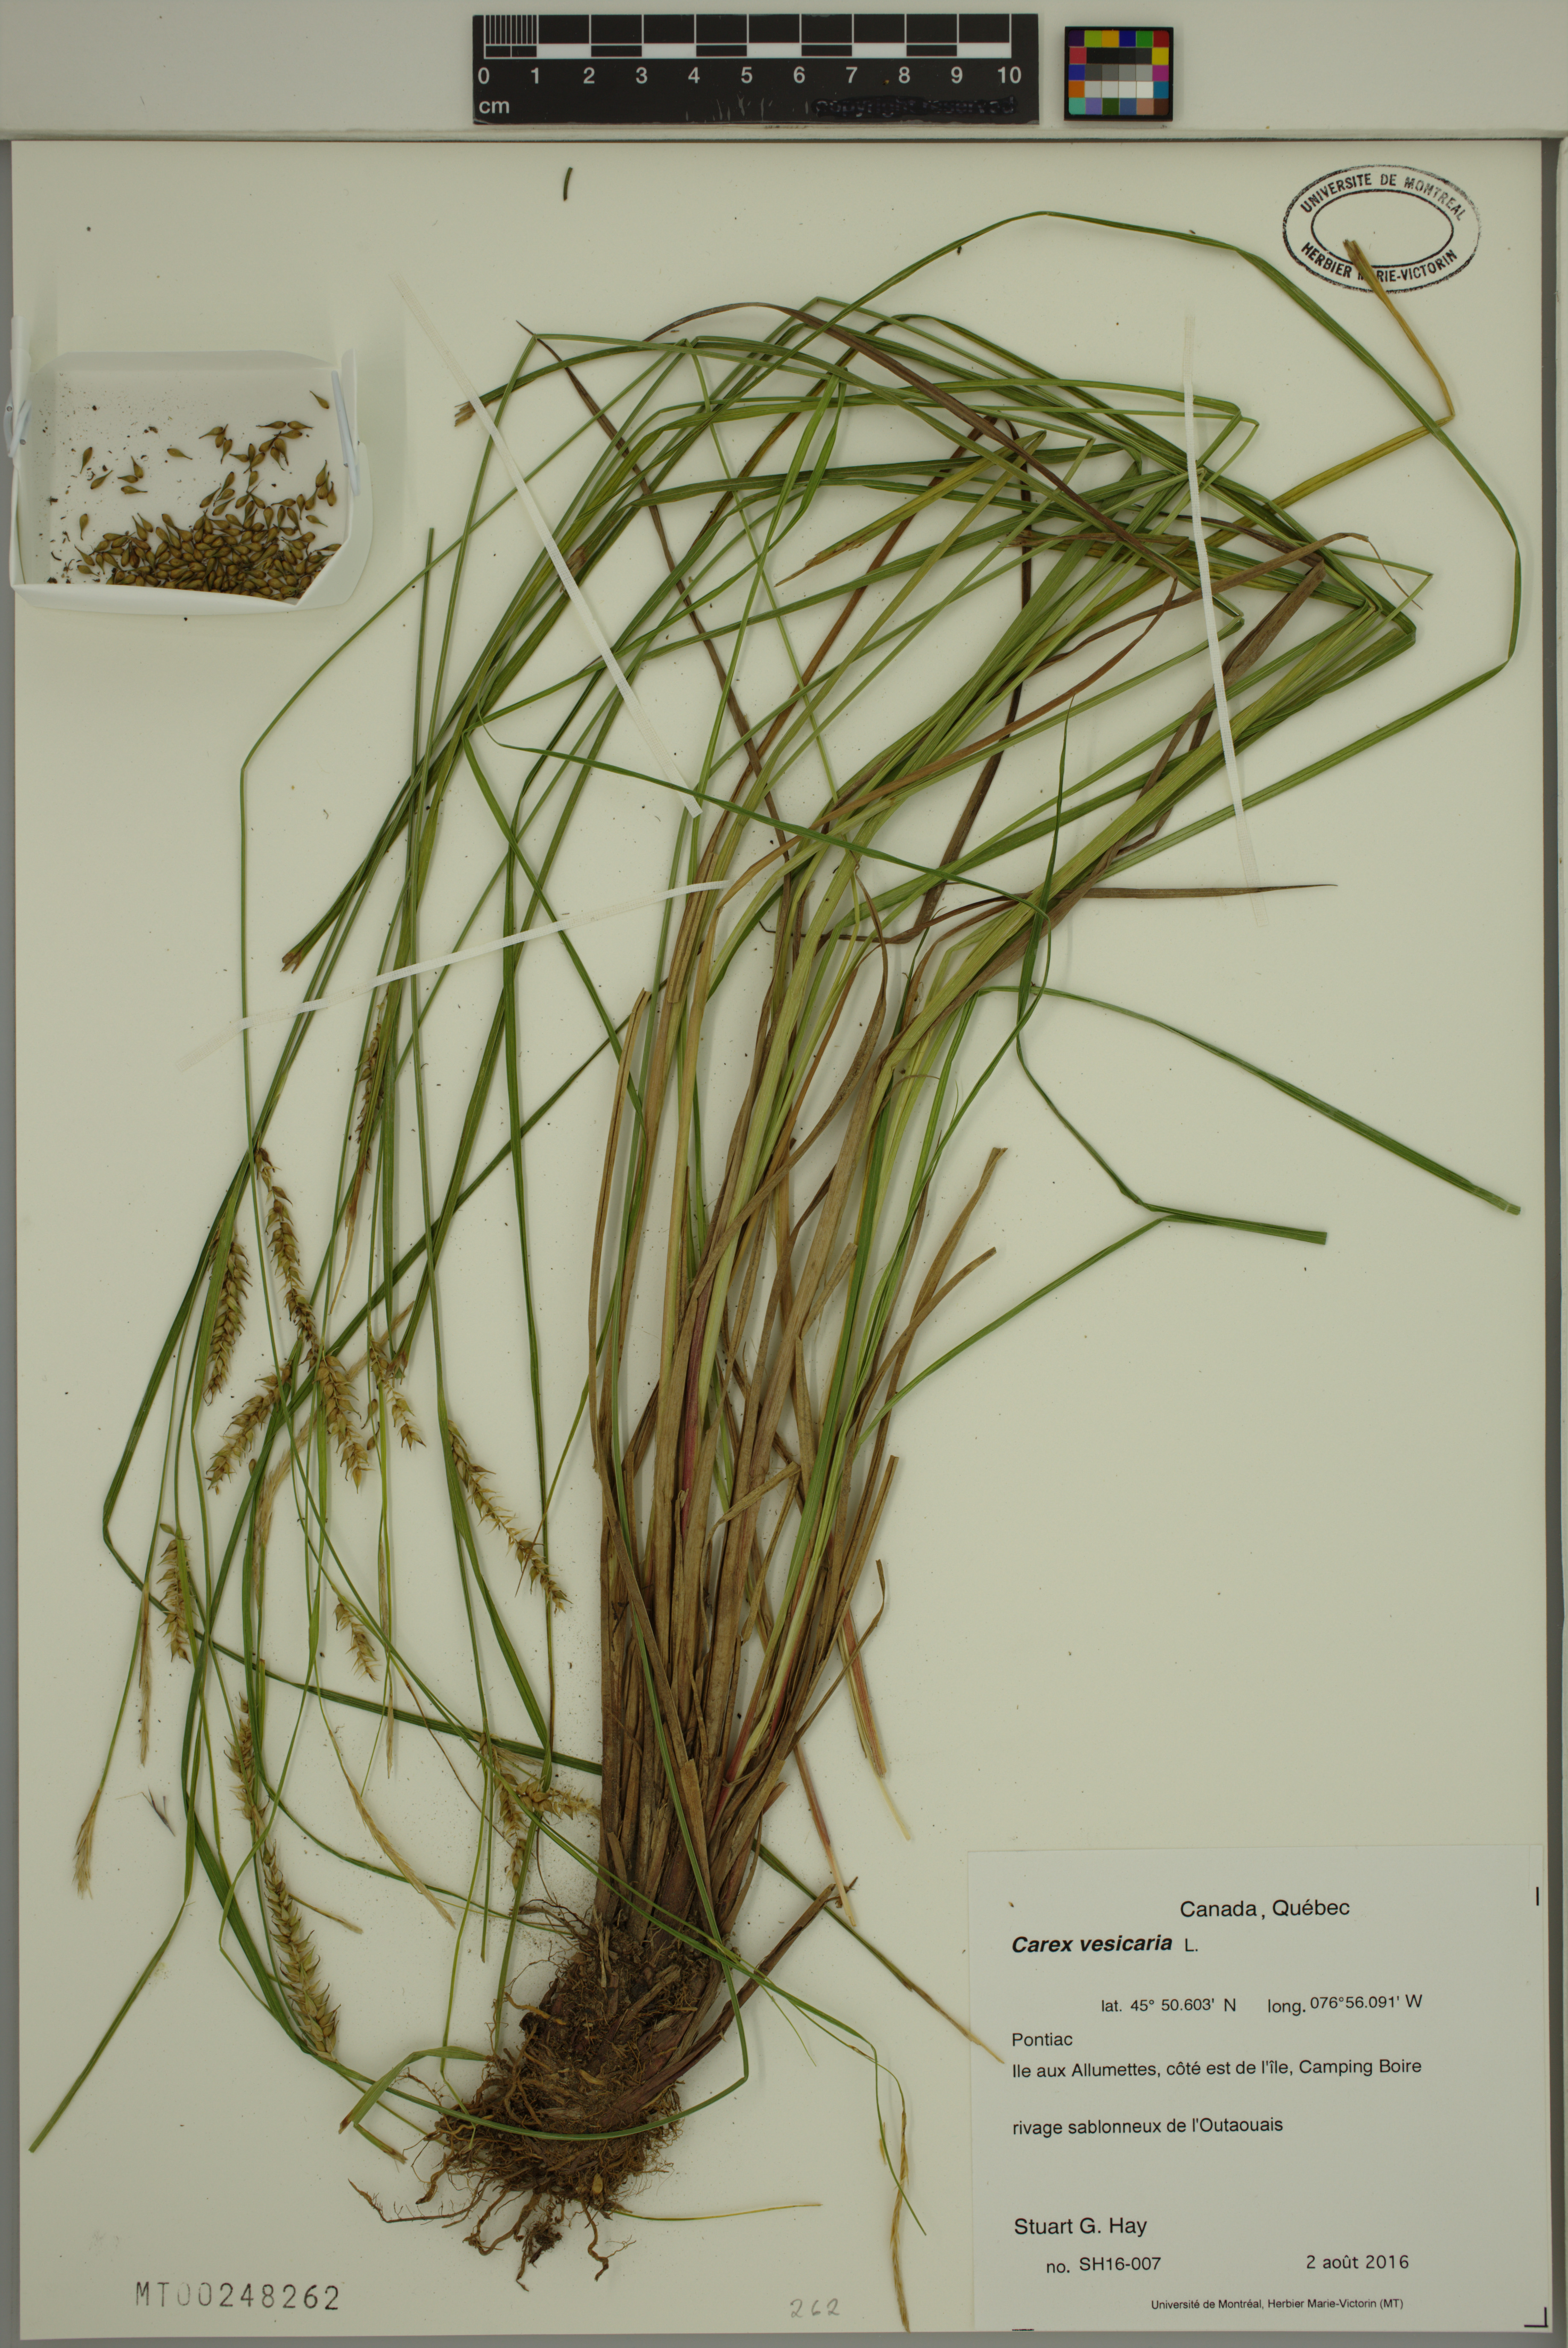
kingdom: Plantae
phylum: Tracheophyta
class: Liliopsida
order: Poales
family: Cyperaceae
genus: Carex
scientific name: Carex vesicaria
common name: Bladder-sedge
